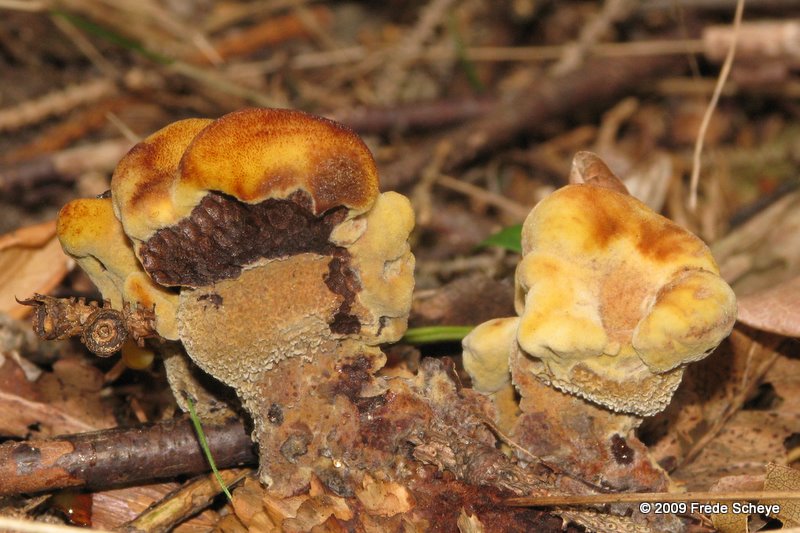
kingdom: Fungi
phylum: Basidiomycota
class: Agaricomycetes
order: Polyporales
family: Laetiporaceae
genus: Phaeolus
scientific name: Phaeolus schweinitzii
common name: brunporesvamp
